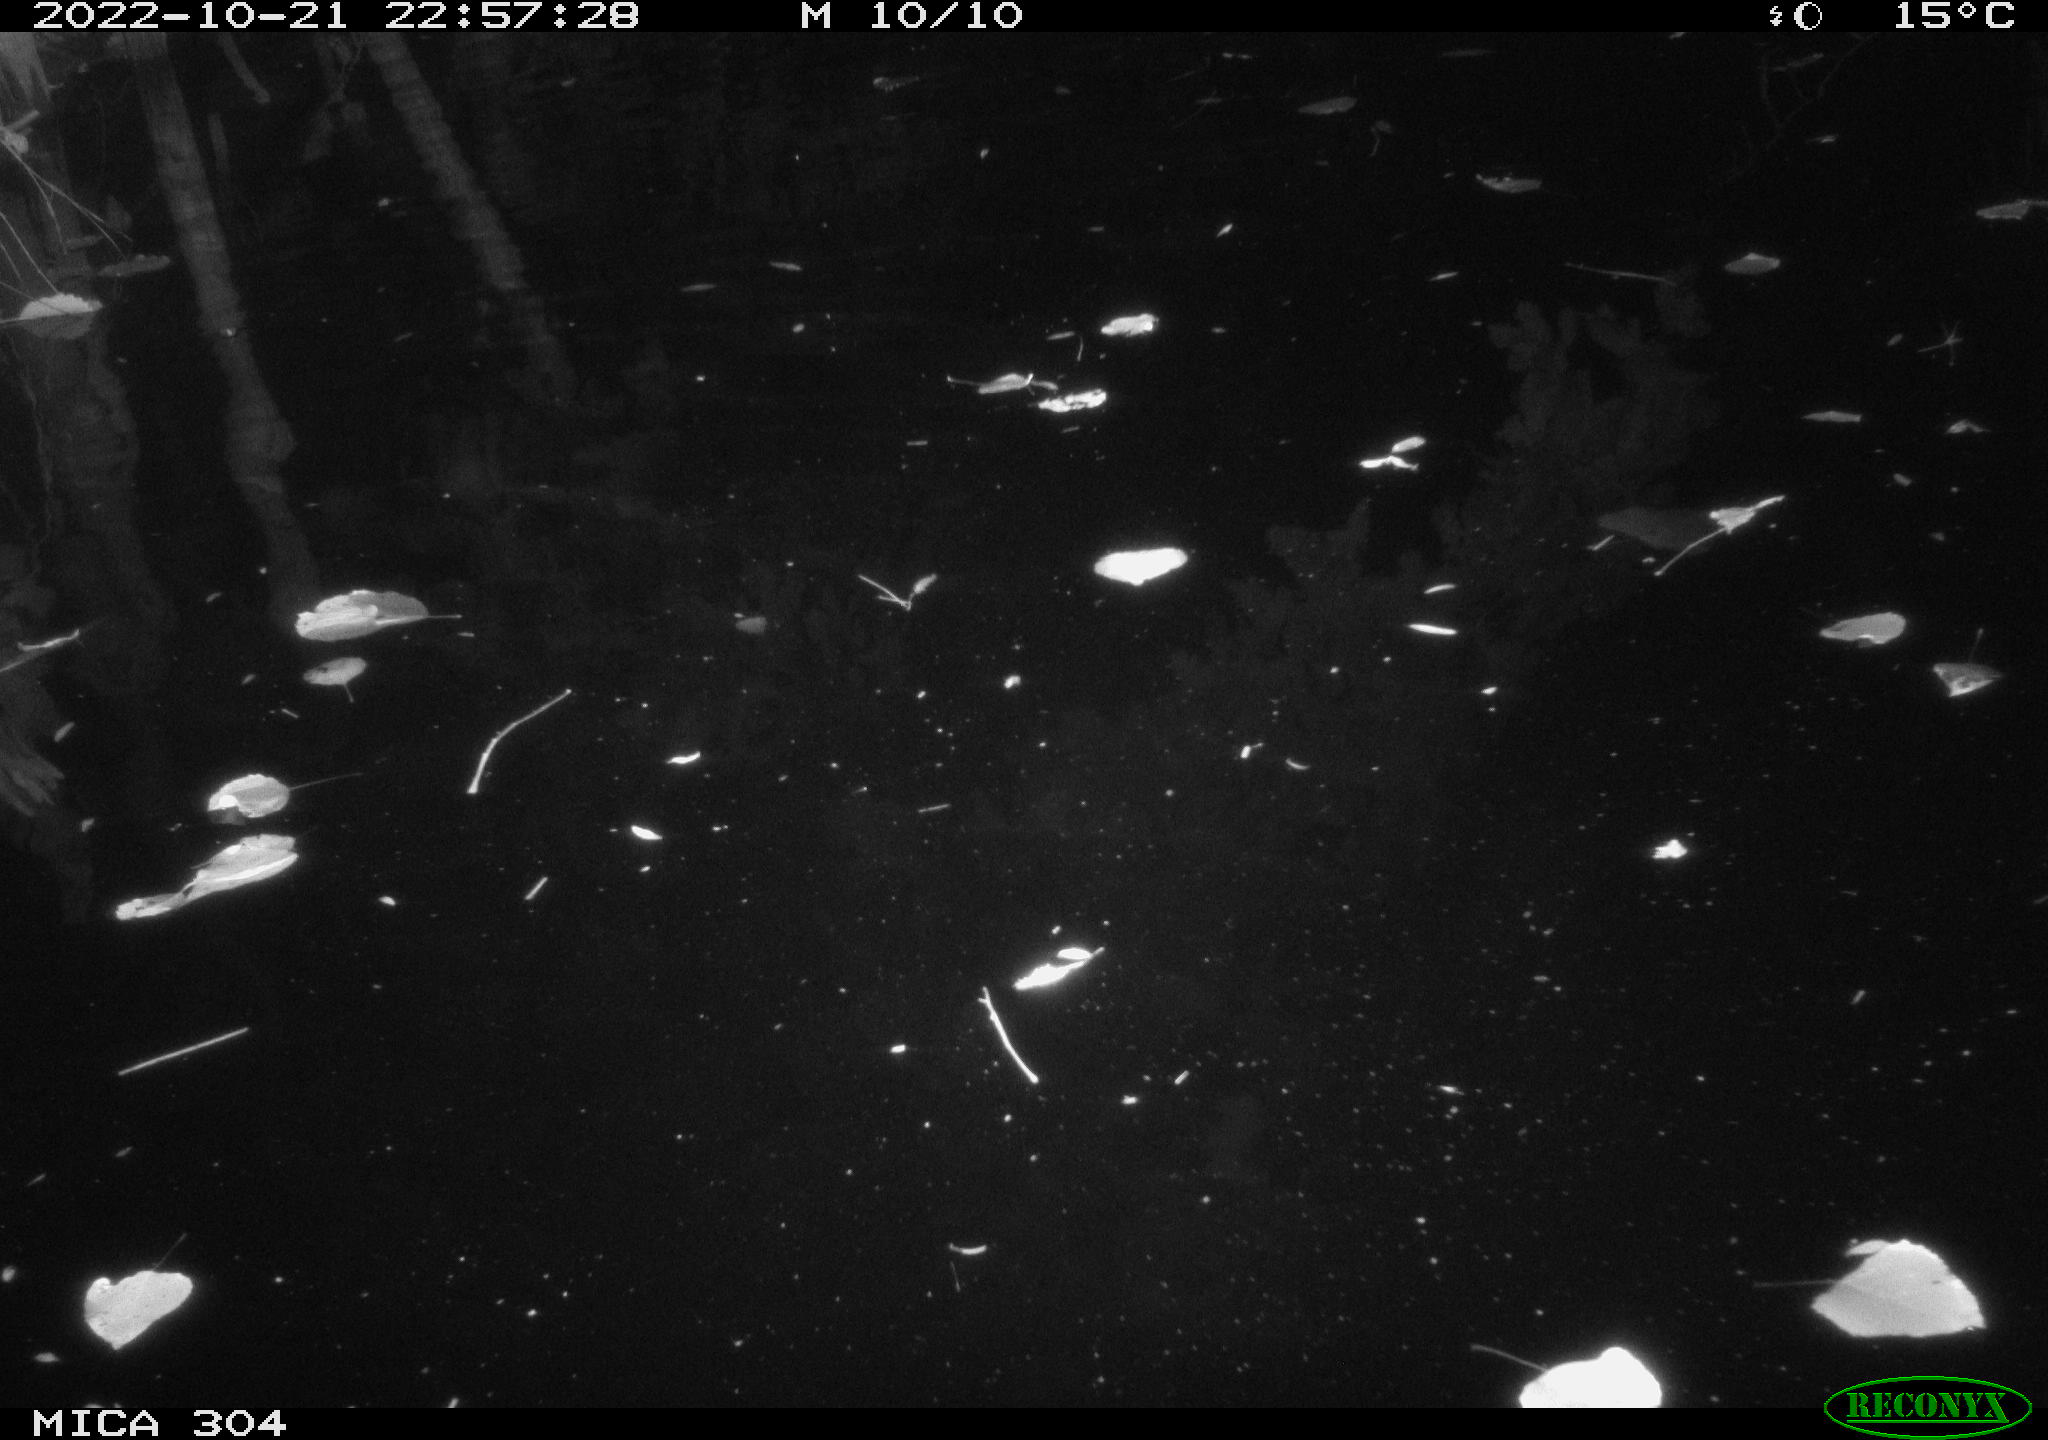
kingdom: Animalia
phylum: Chordata
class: Mammalia
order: Rodentia
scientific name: Rodentia
